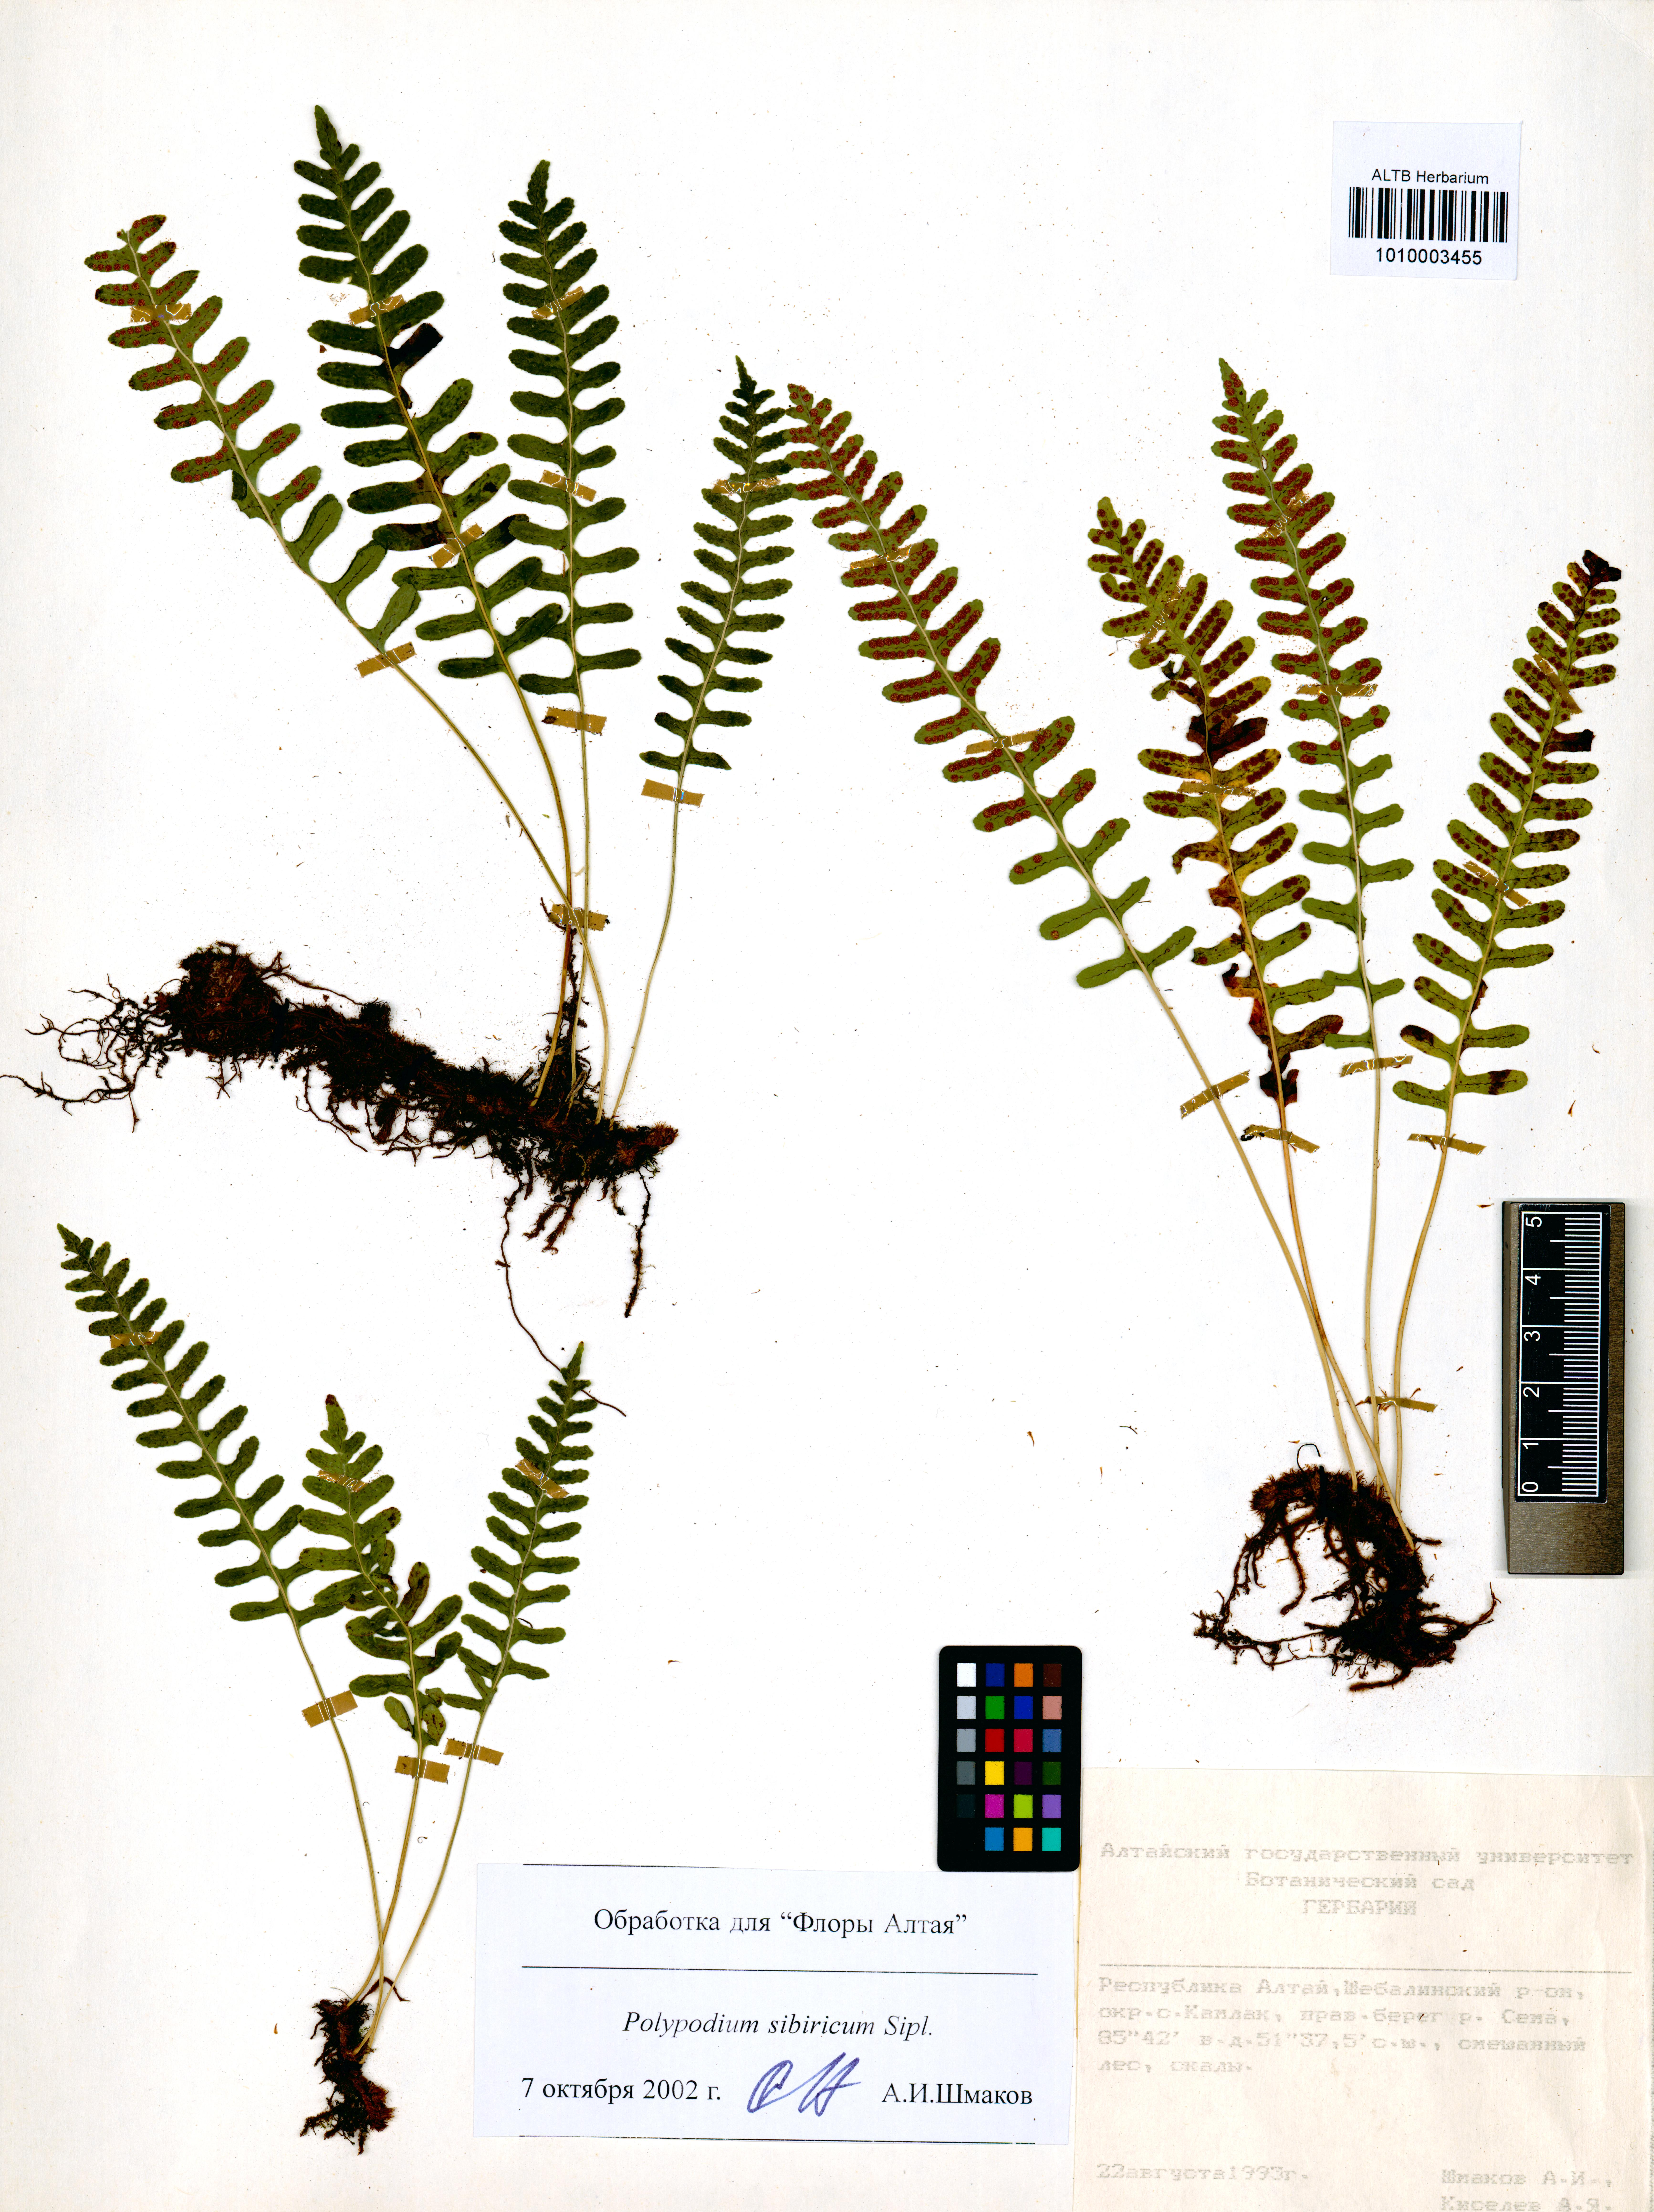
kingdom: Plantae
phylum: Tracheophyta
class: Polypodiopsida
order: Polypodiales
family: Polypodiaceae
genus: Polypodium
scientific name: Polypodium sibiricum
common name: Siberian polypody
